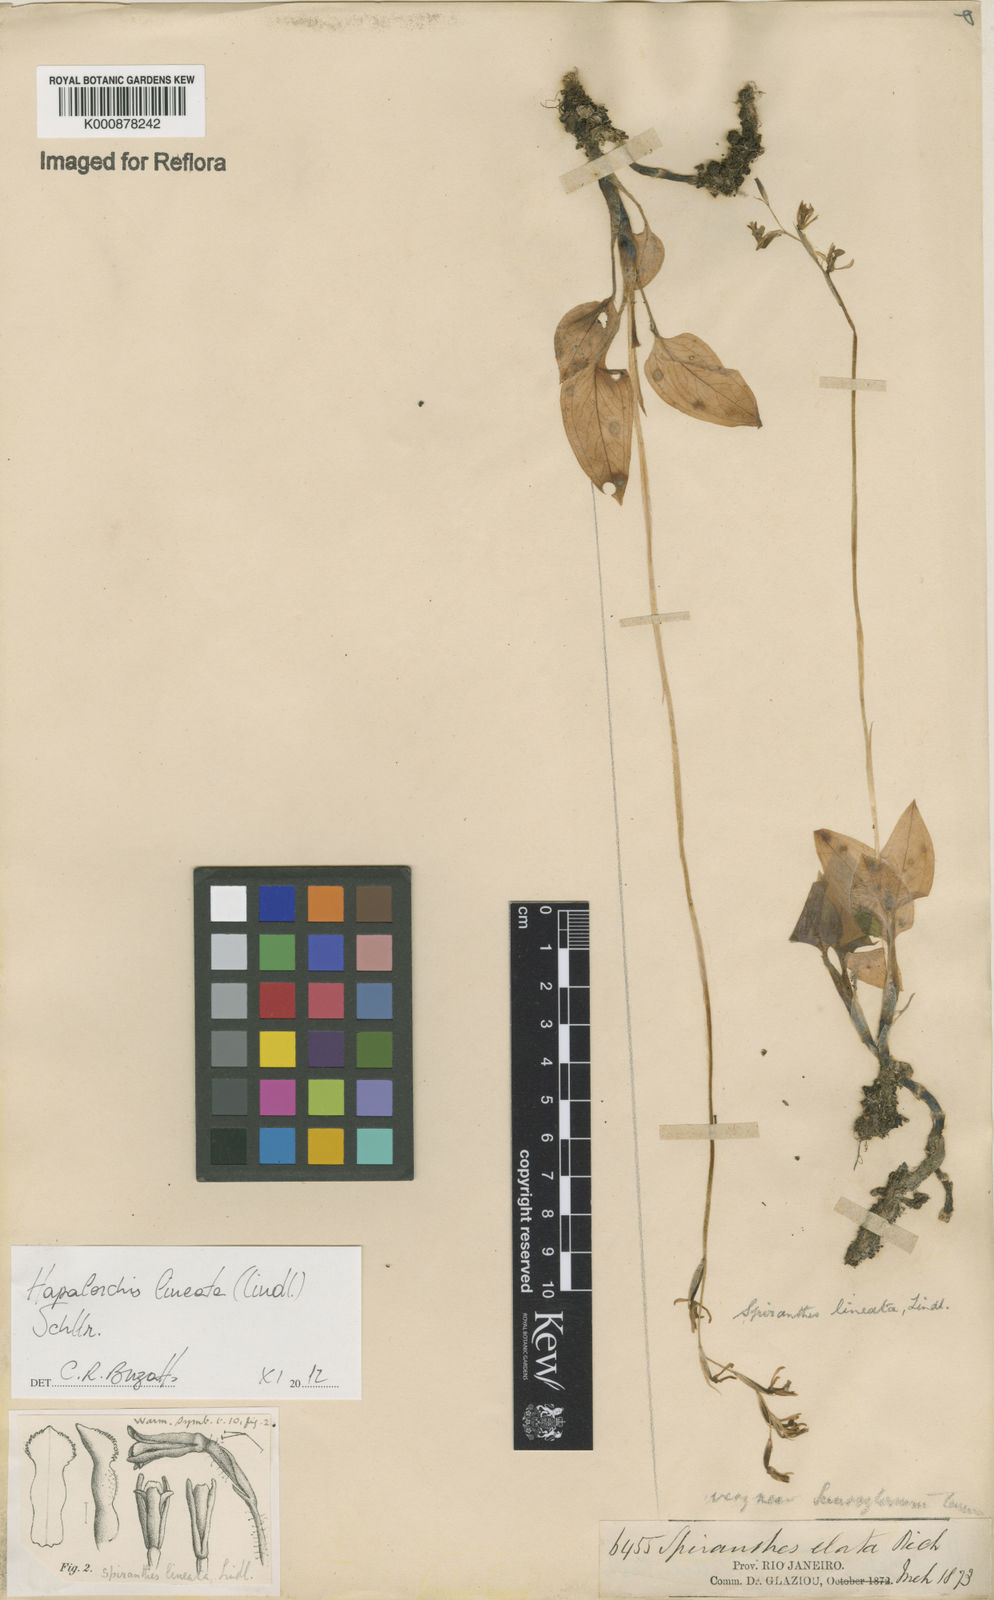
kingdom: Plantae
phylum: Tracheophyta
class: Liliopsida
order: Asparagales
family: Orchidaceae
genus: Hapalorchis
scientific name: Hapalorchis lineata
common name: Tropical ladies'-tresses
